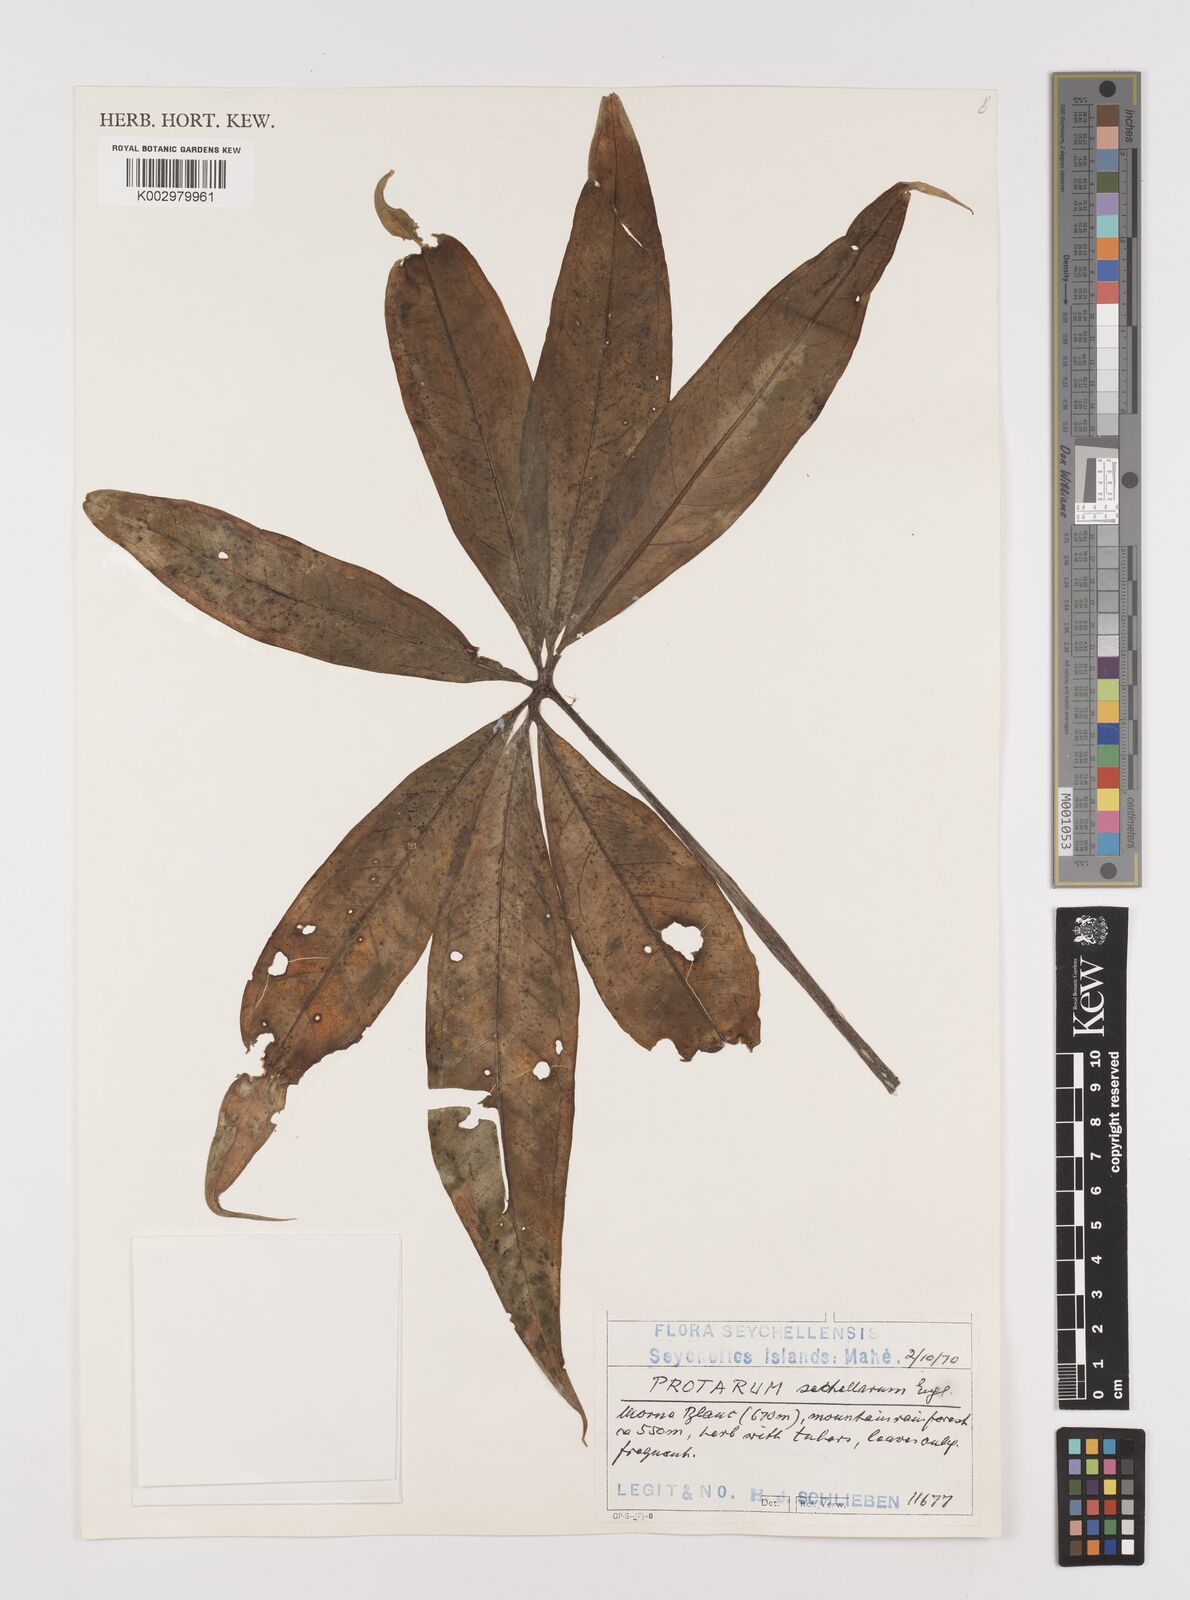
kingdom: Plantae
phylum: Tracheophyta
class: Liliopsida
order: Alismatales
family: Araceae
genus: Protarum
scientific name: Protarum sechellarum
